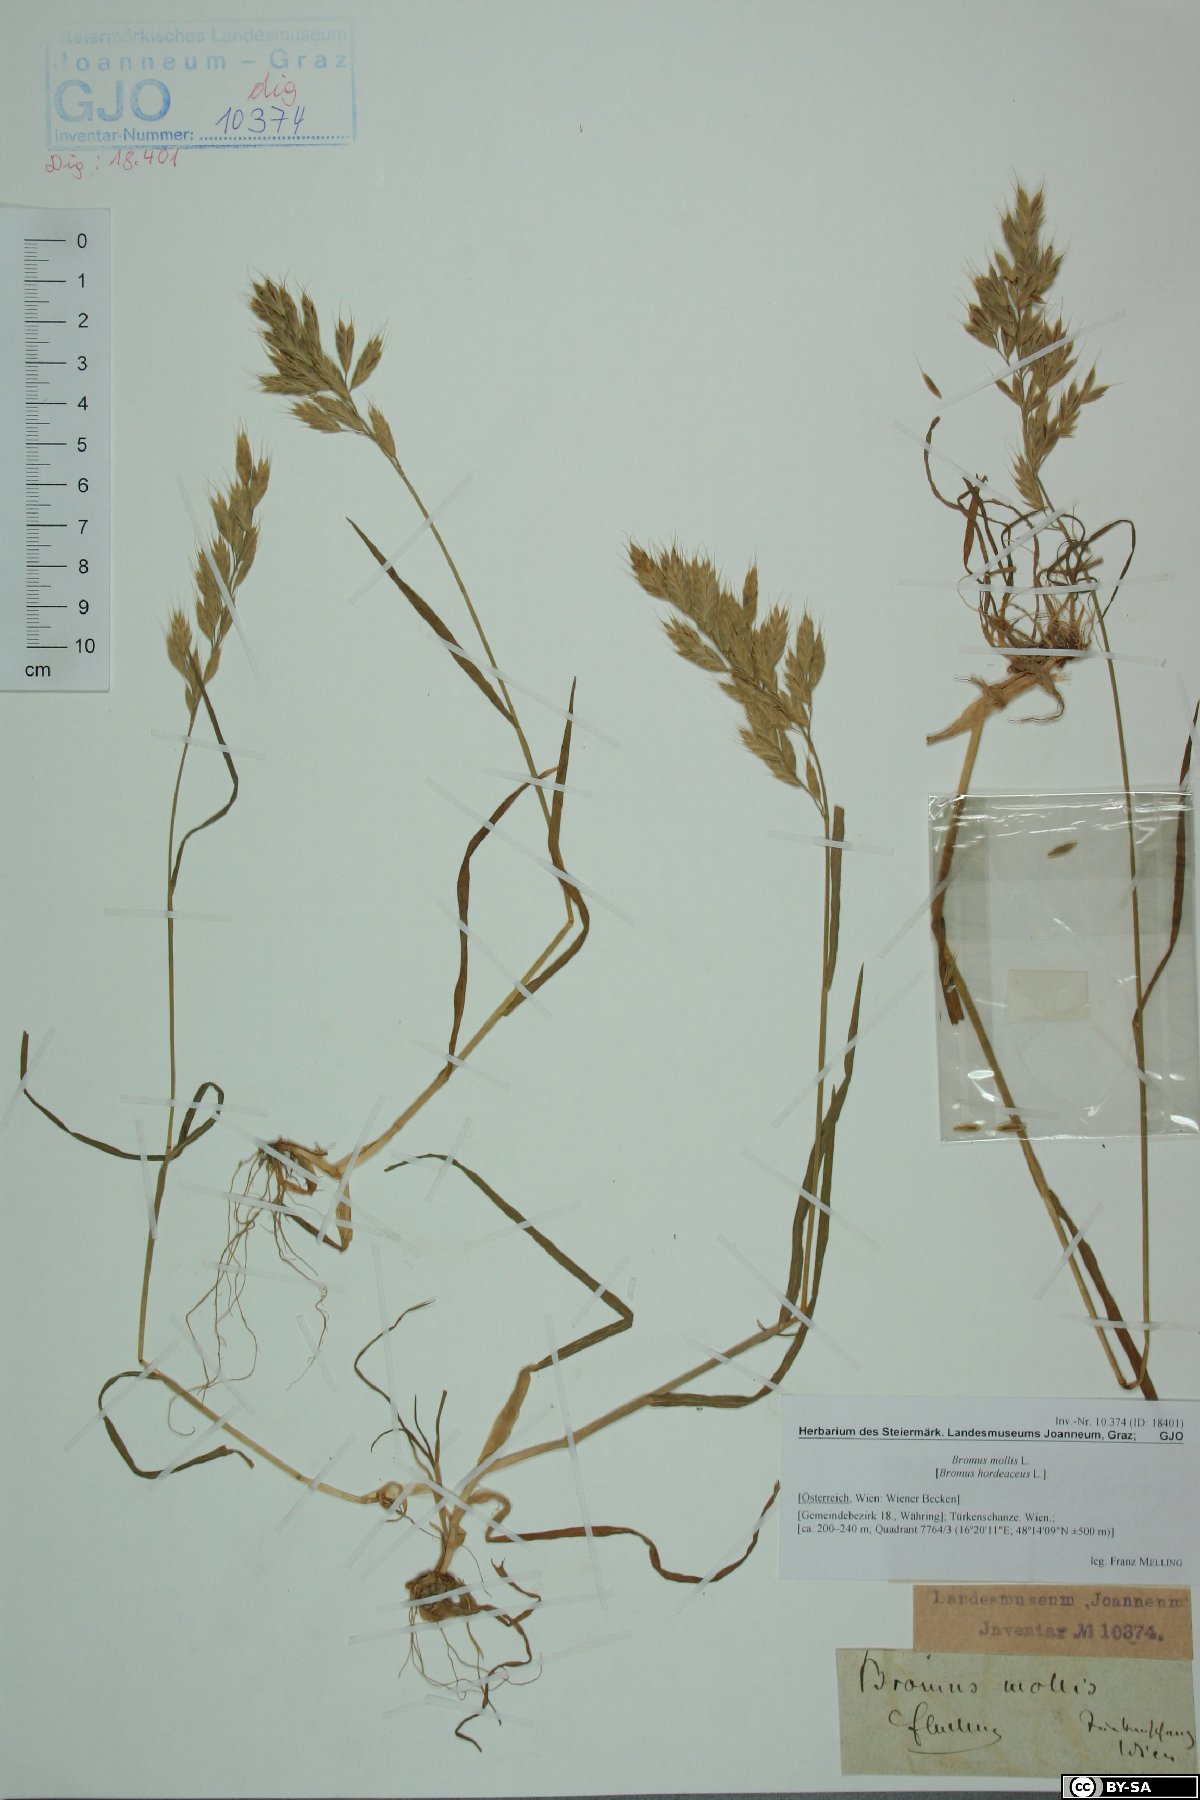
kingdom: Plantae
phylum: Tracheophyta
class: Liliopsida
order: Poales
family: Poaceae
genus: Bromus
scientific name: Bromus hordeaceus
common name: Soft brome
